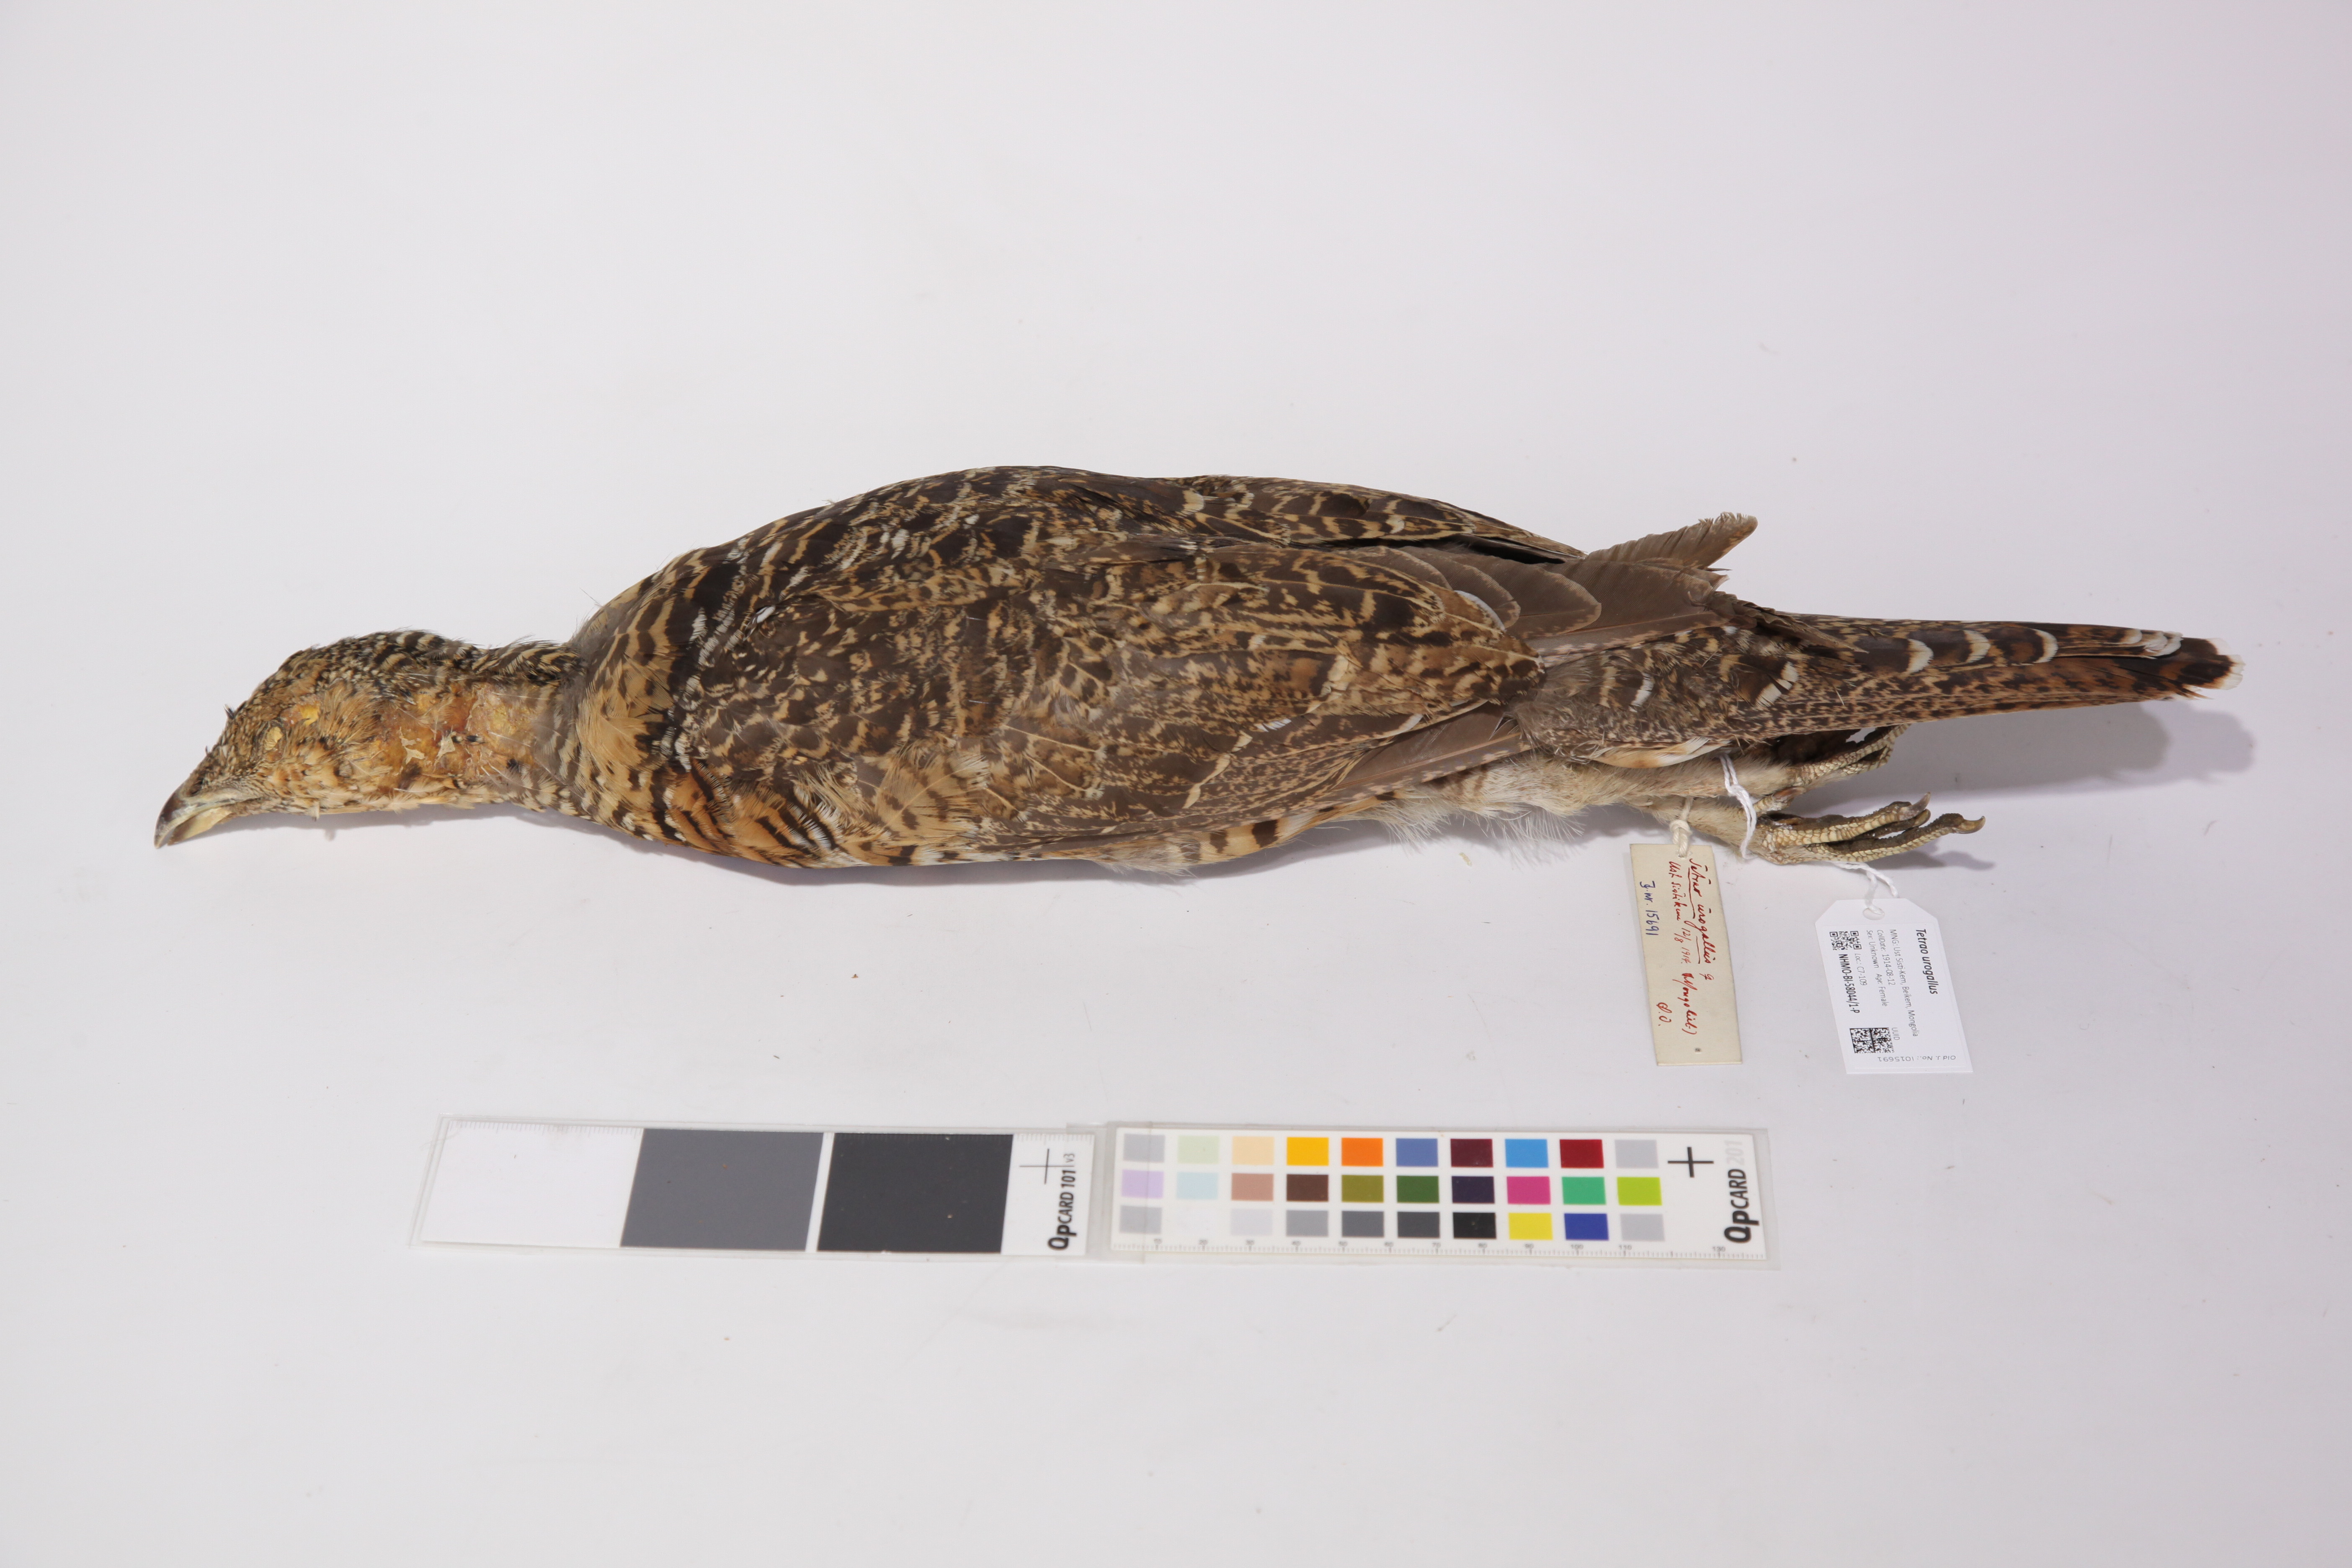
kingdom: Animalia
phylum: Chordata
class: Aves
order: Galliformes
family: Phasianidae
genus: Tetrao
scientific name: Tetrao urogallus
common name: Western capercaillie
